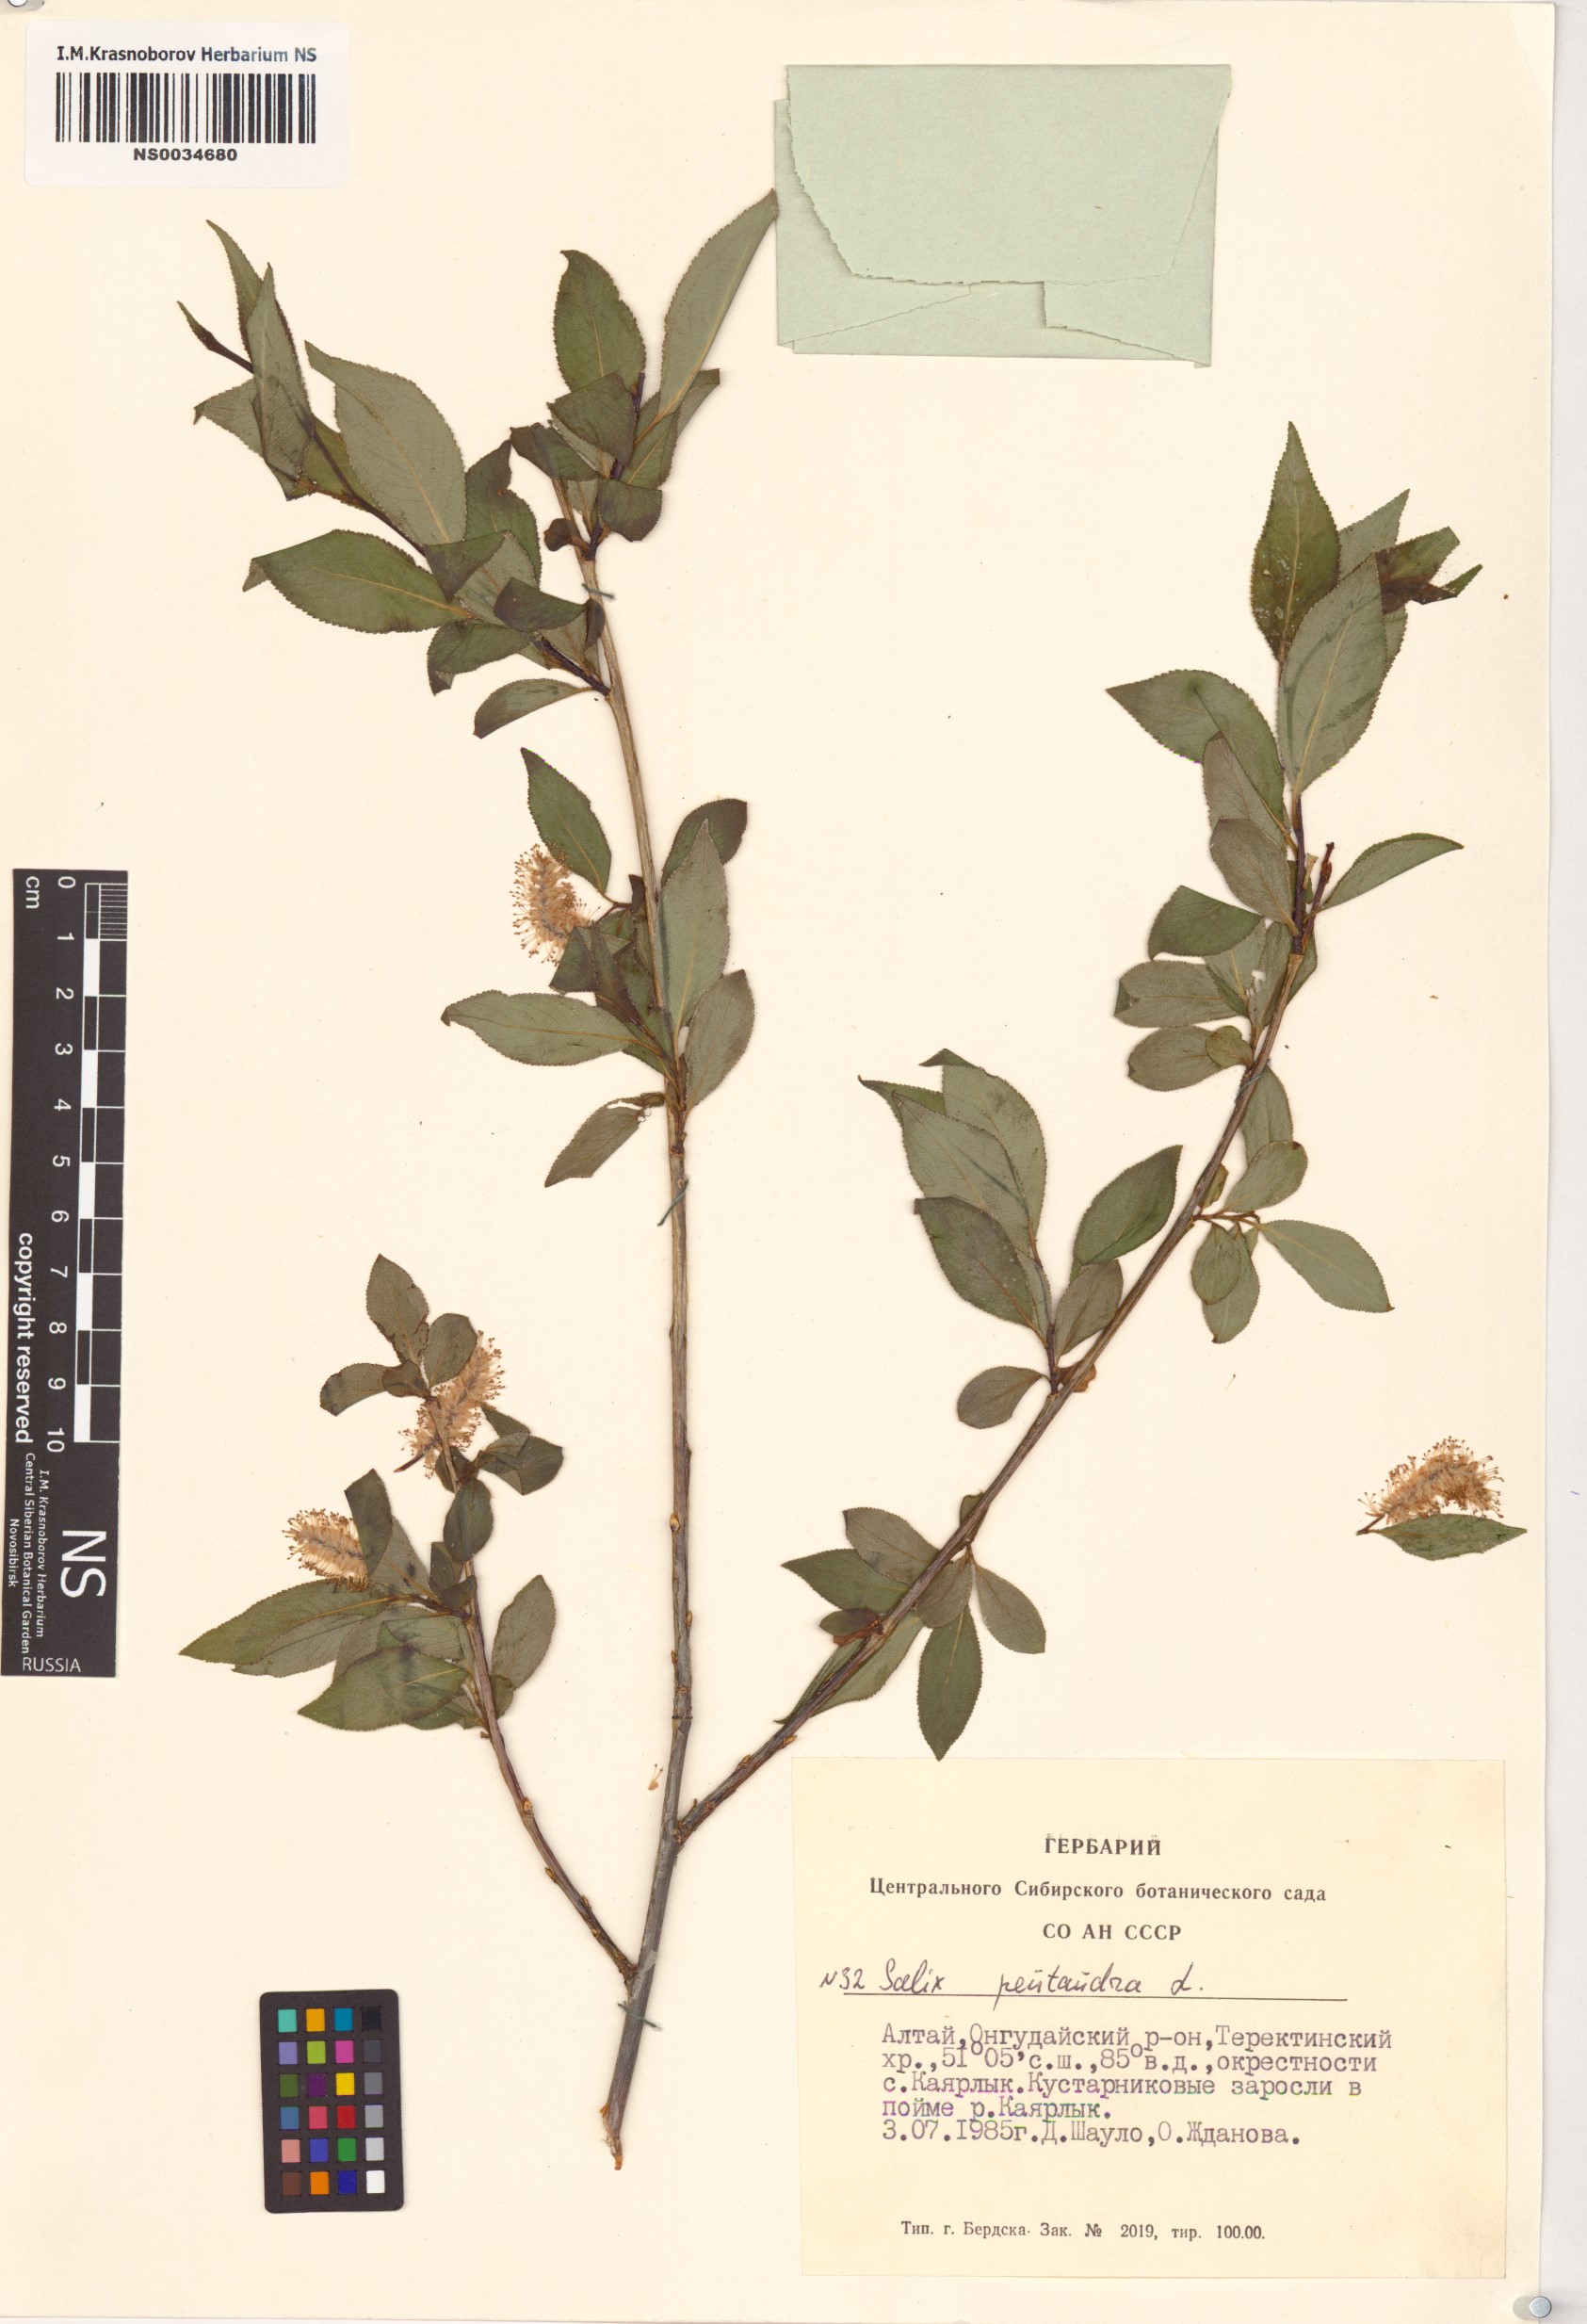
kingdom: Plantae
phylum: Tracheophyta
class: Magnoliopsida
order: Malpighiales
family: Salicaceae
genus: Salix
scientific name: Salix pseudopentandra
